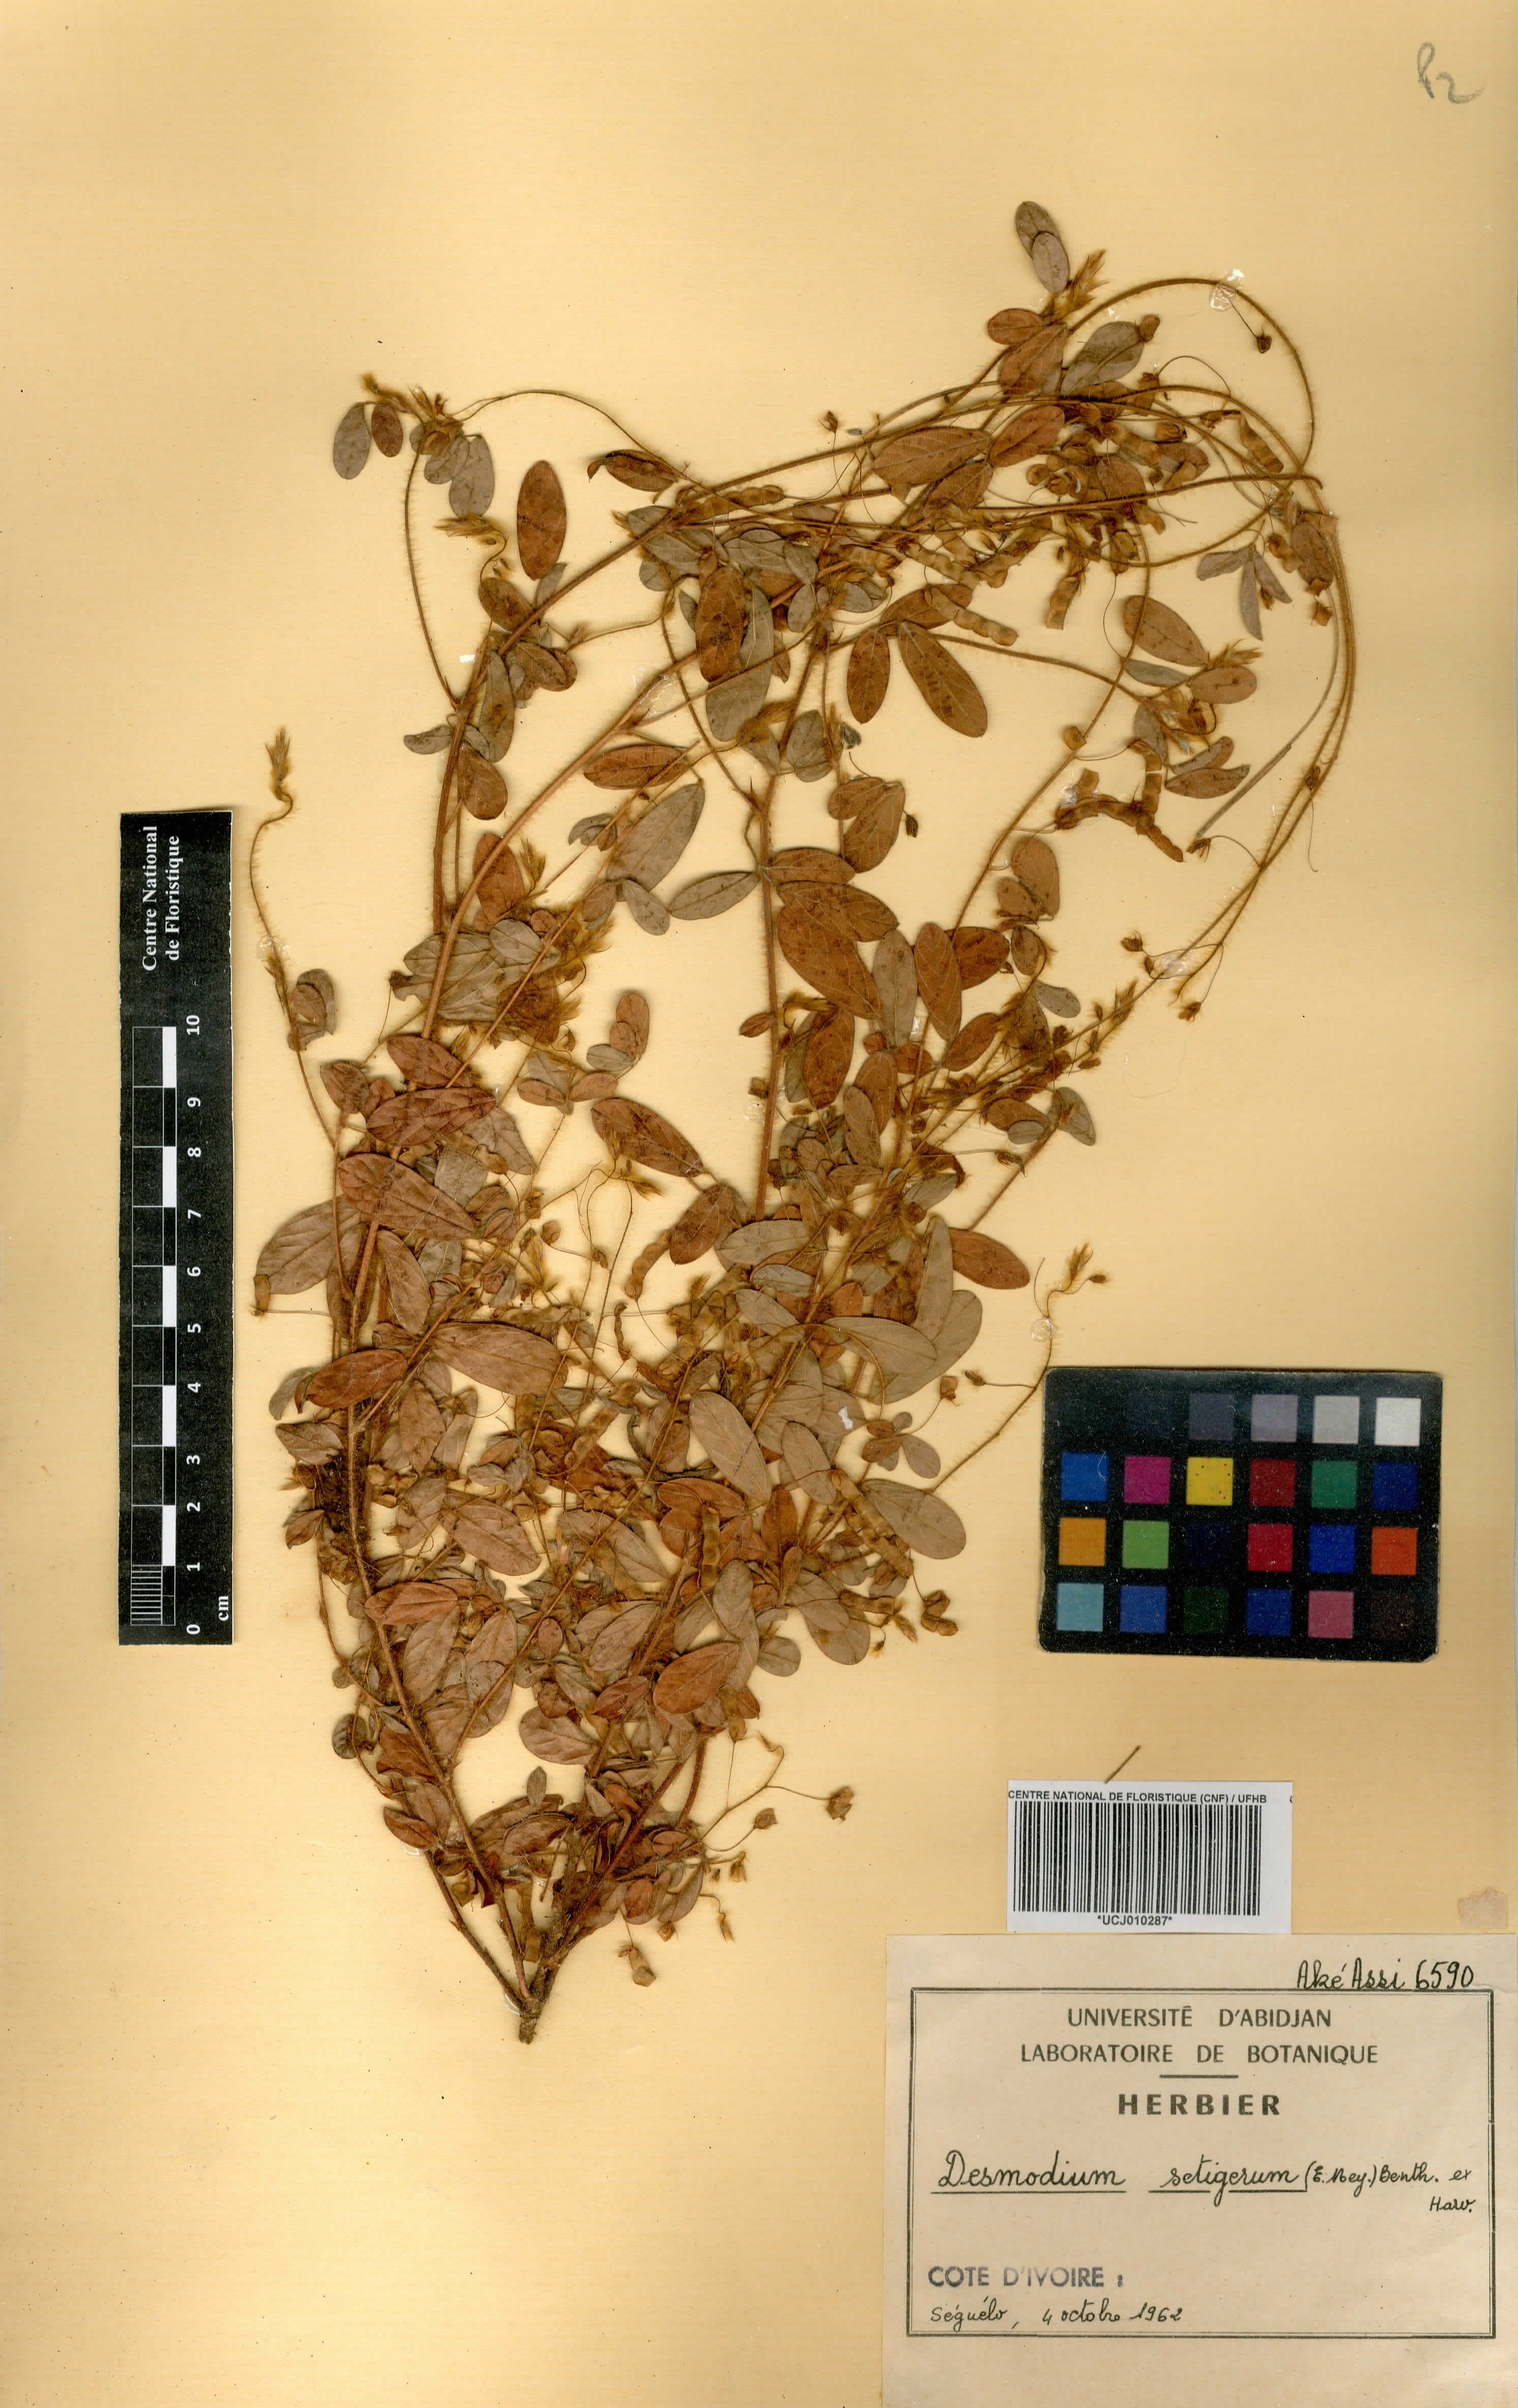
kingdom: Plantae
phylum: Tracheophyta
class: Magnoliopsida
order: Fabales
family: Fabaceae
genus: Grona
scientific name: Grona setigera
